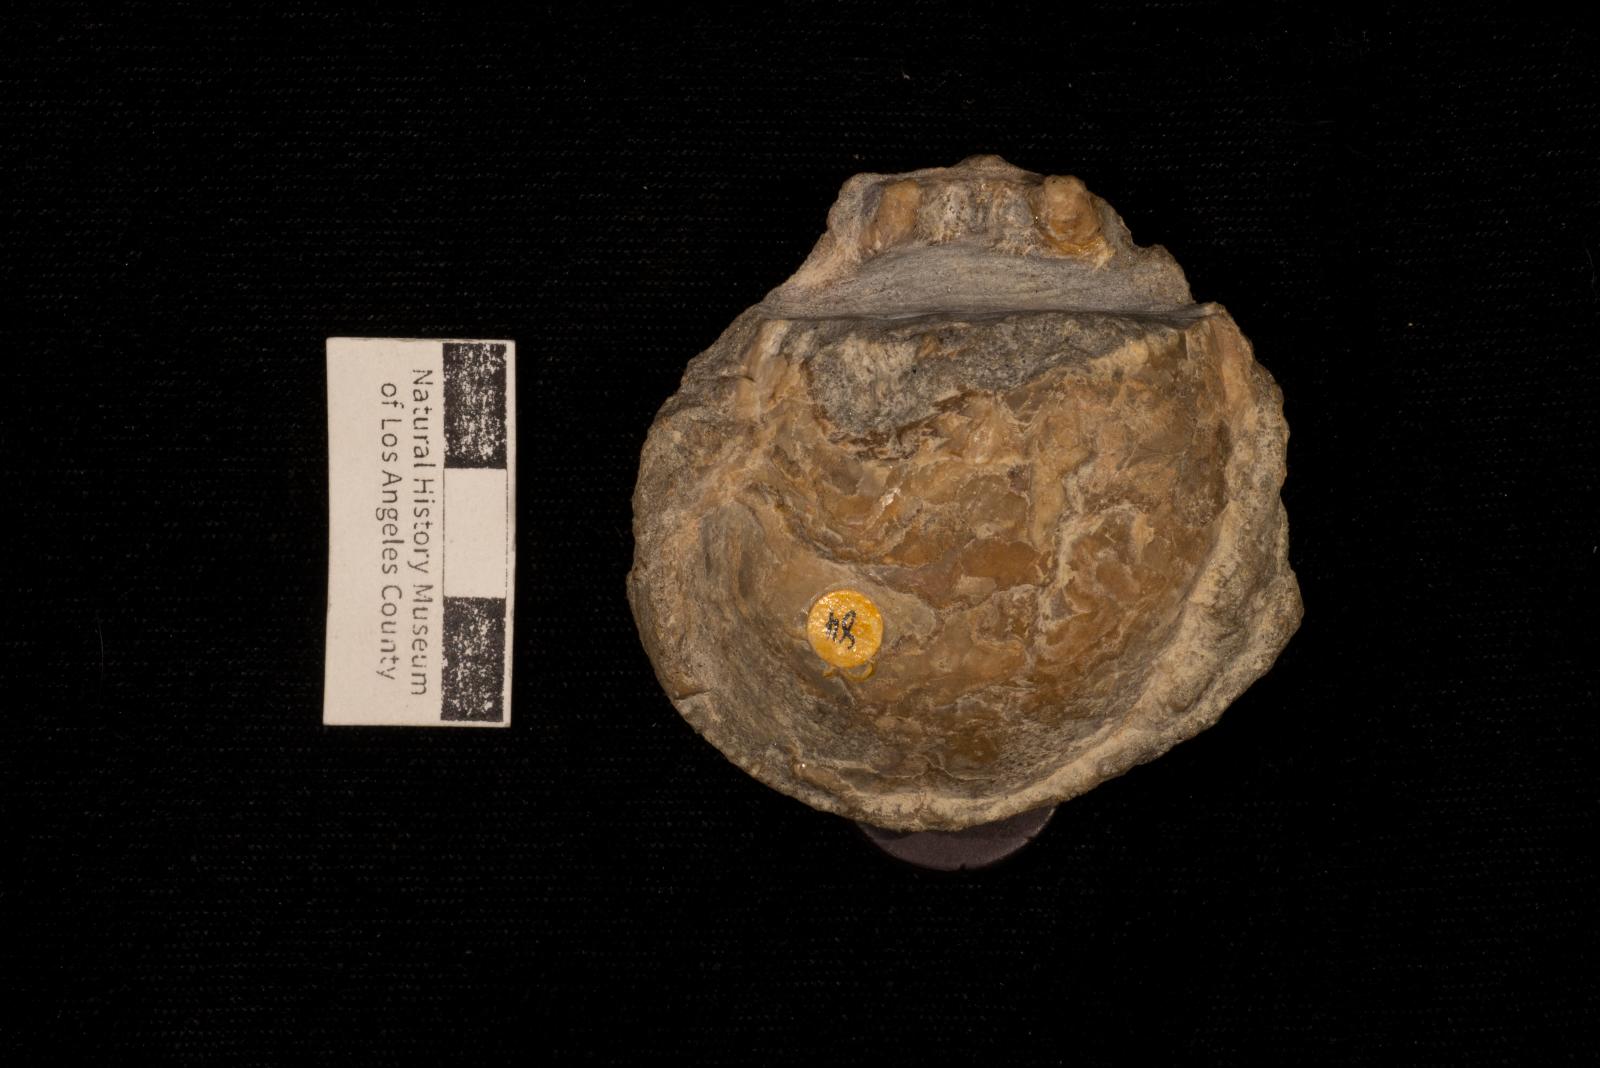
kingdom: Animalia
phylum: Mollusca
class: Bivalvia
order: Pectinida
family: Spondylidae
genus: Spondylus
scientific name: Spondylus
